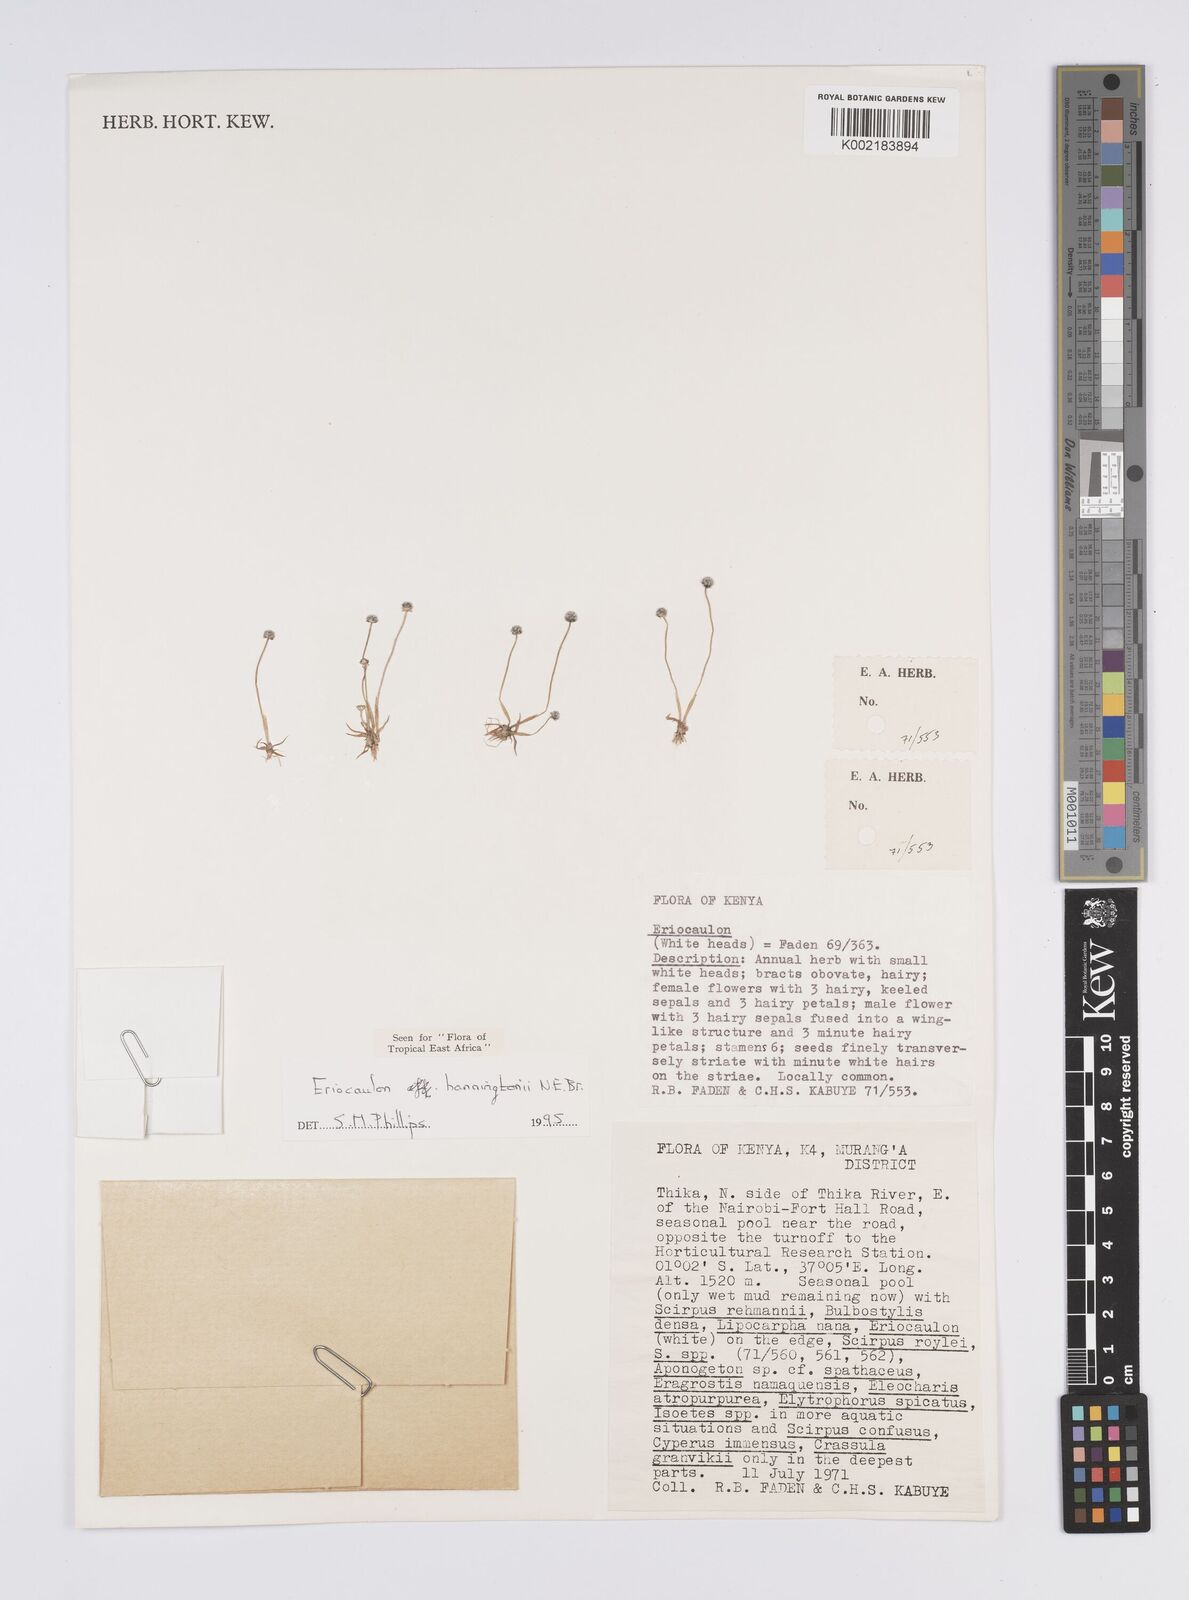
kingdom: Plantae
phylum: Tracheophyta
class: Liliopsida
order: Poales
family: Eriocaulaceae
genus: Eriocaulon
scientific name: Eriocaulon transvaalicum
